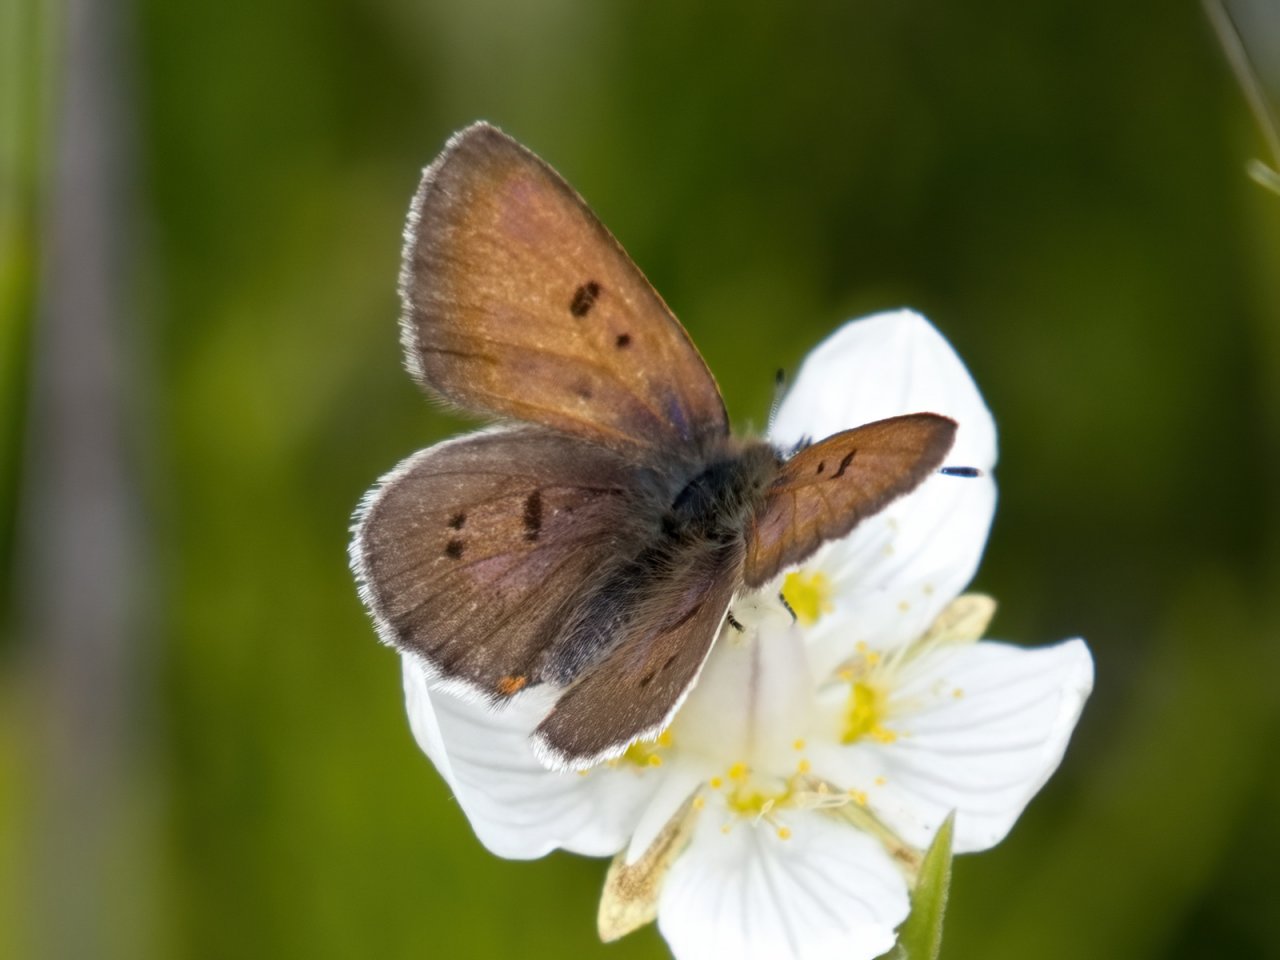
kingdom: Animalia
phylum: Arthropoda
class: Insecta
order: Lepidoptera
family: Sesiidae
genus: Sesia
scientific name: Sesia Lycaena epixanthe
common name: Bog Copper
